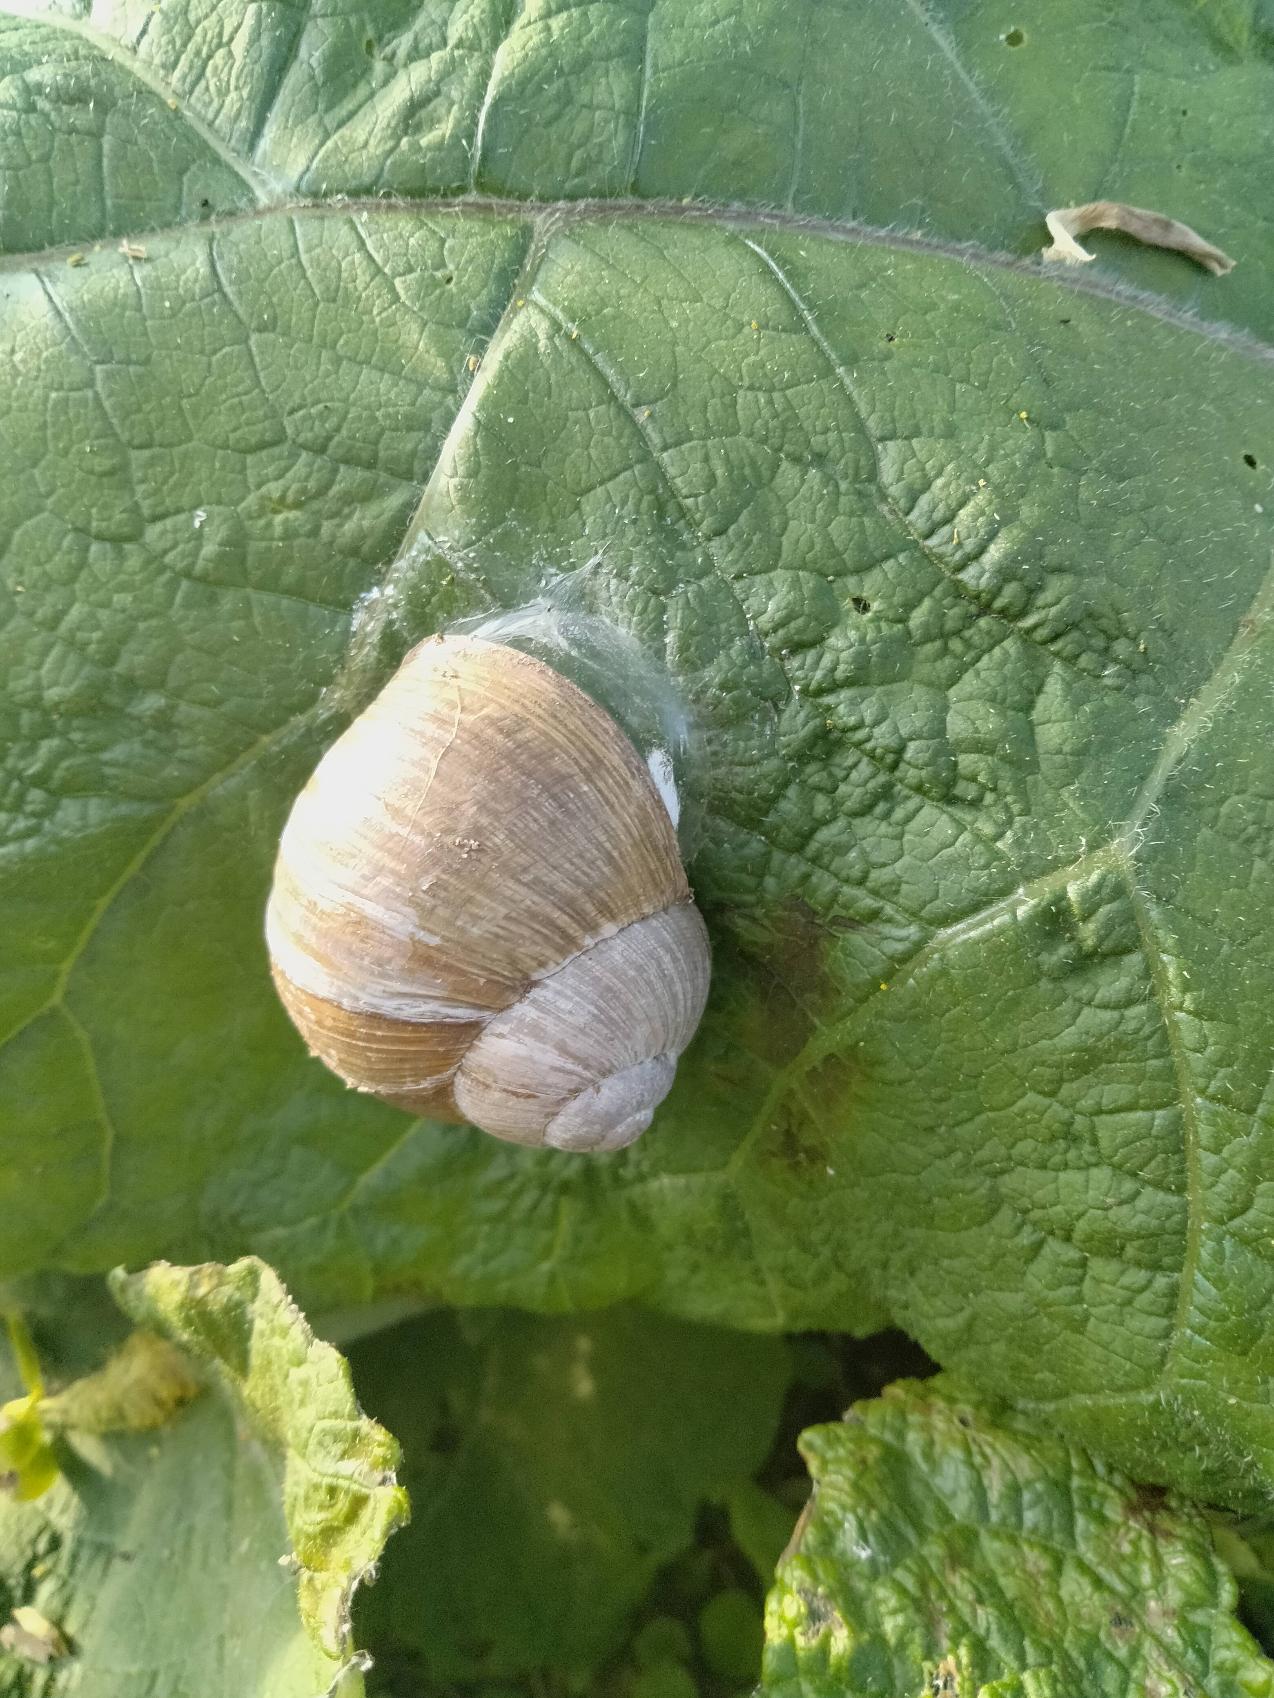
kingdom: Animalia
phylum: Mollusca
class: Gastropoda
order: Stylommatophora
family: Helicidae
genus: Helix
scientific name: Helix pomatia
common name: Vinbjergsnegl
